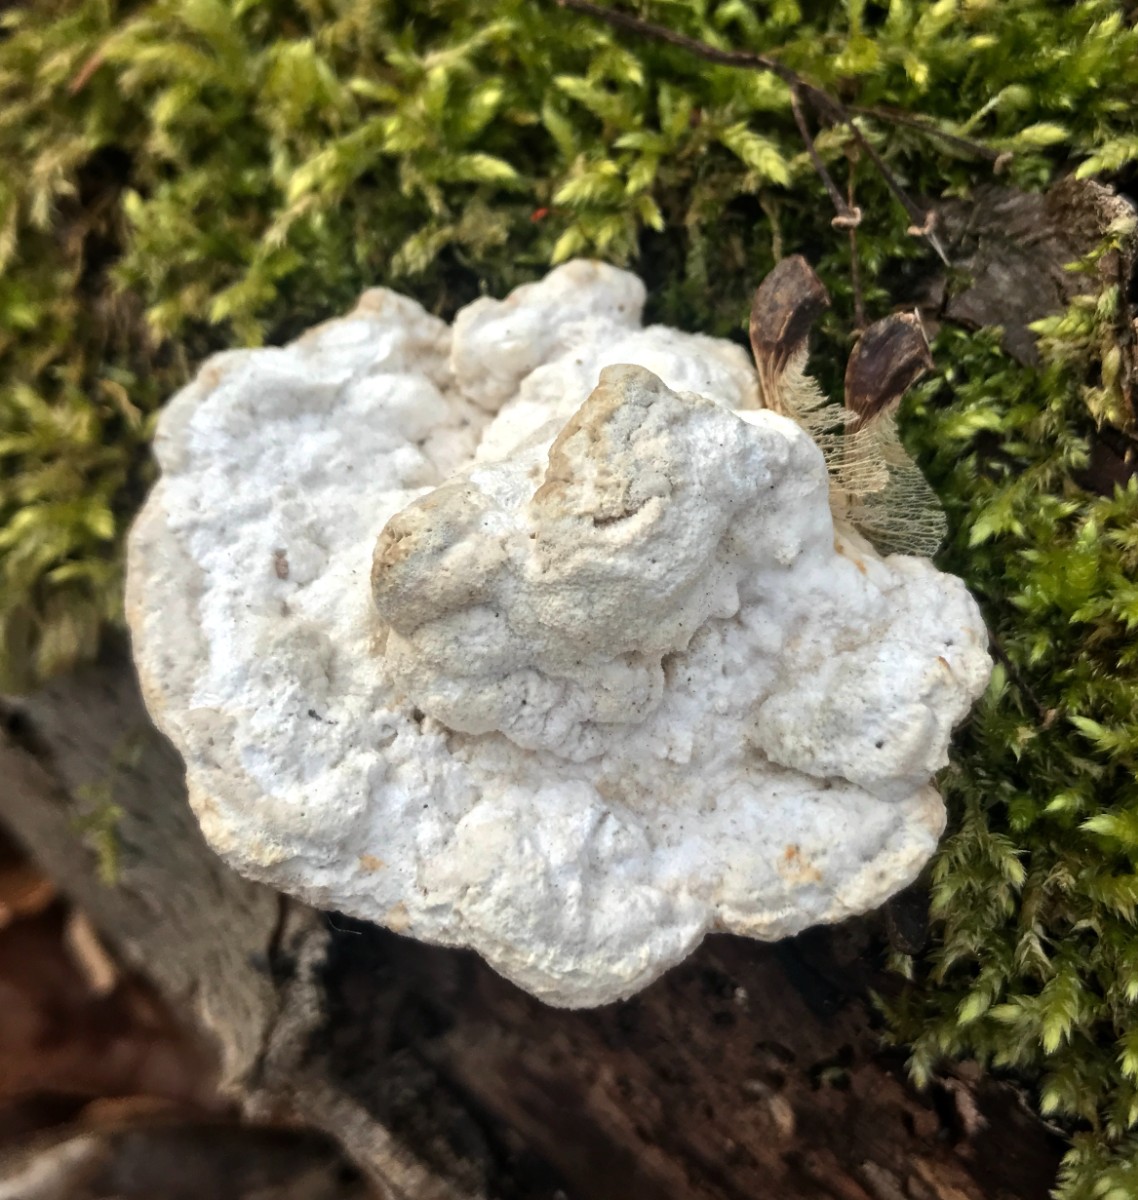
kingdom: Fungi
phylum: Basidiomycota
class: Agaricomycetes
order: Polyporales
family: Polyporaceae
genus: Trametes
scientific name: Trametes gibbosa
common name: puklet læderporesvamp
